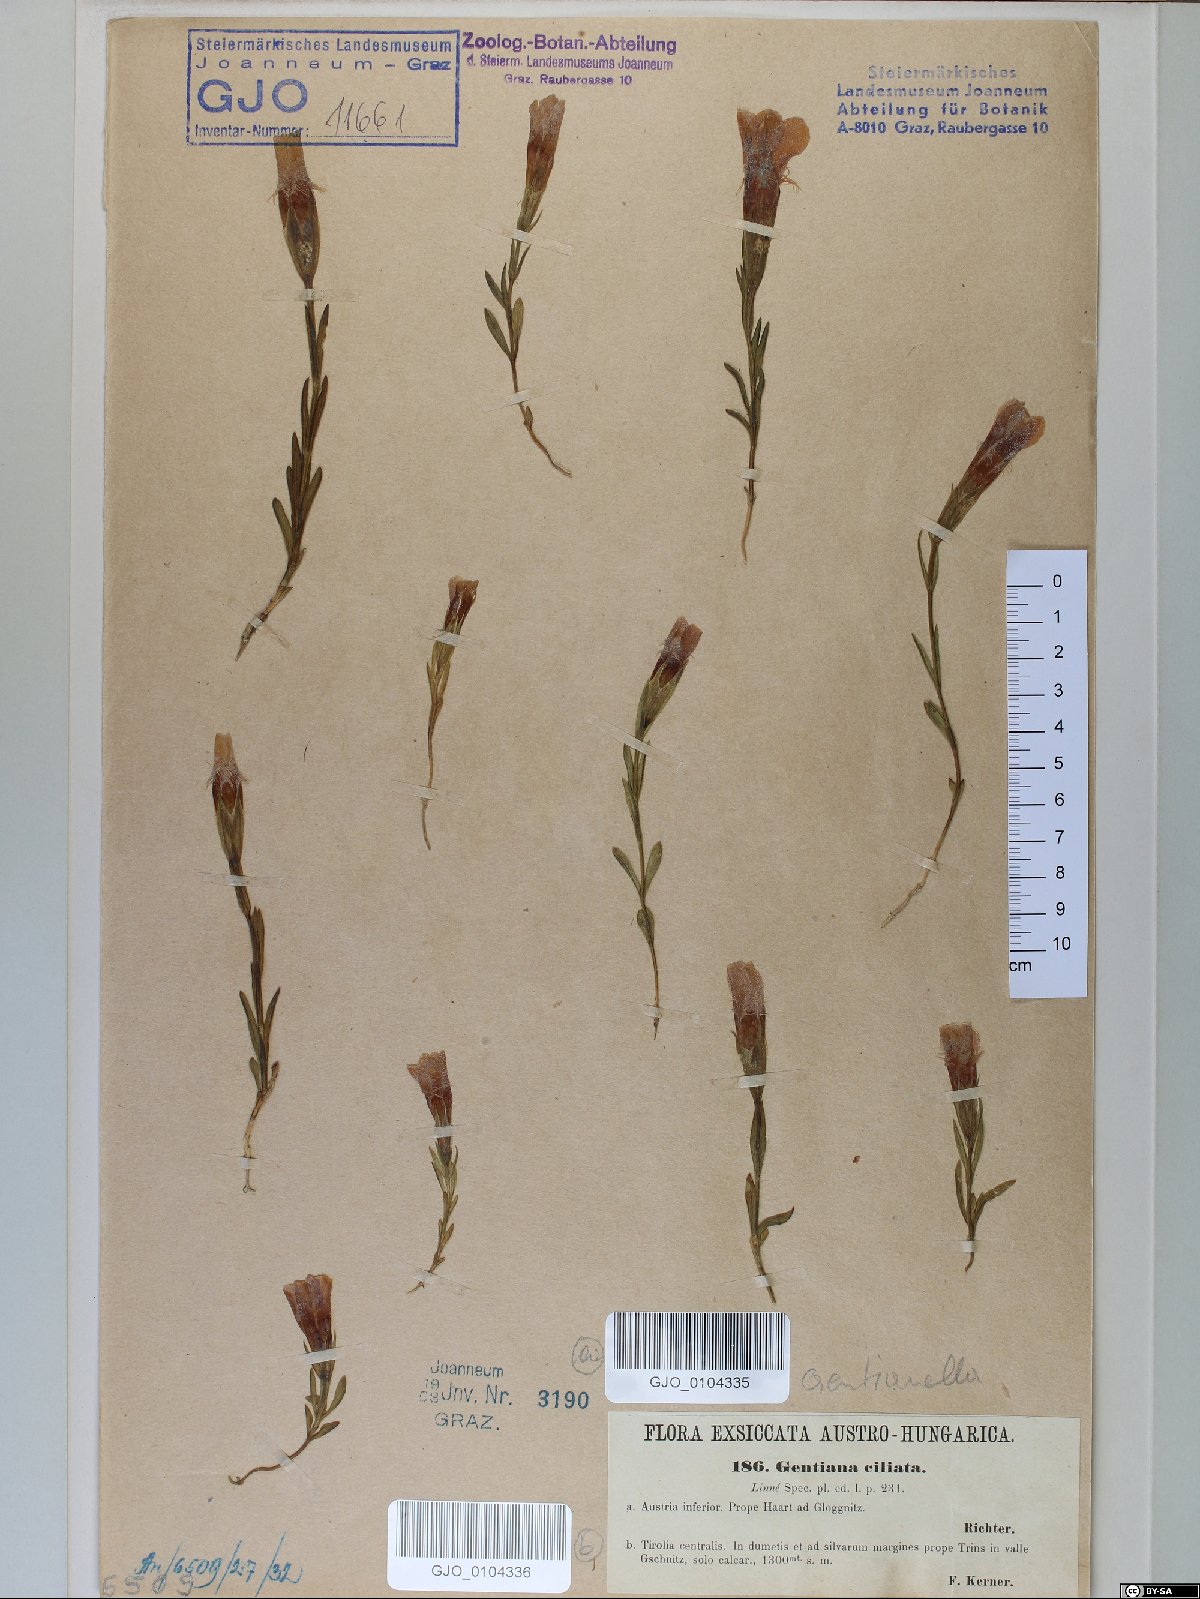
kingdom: Plantae
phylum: Tracheophyta
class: Magnoliopsida
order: Gentianales
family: Gentianaceae
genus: Gentianopsis
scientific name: Gentianopsis ciliata
